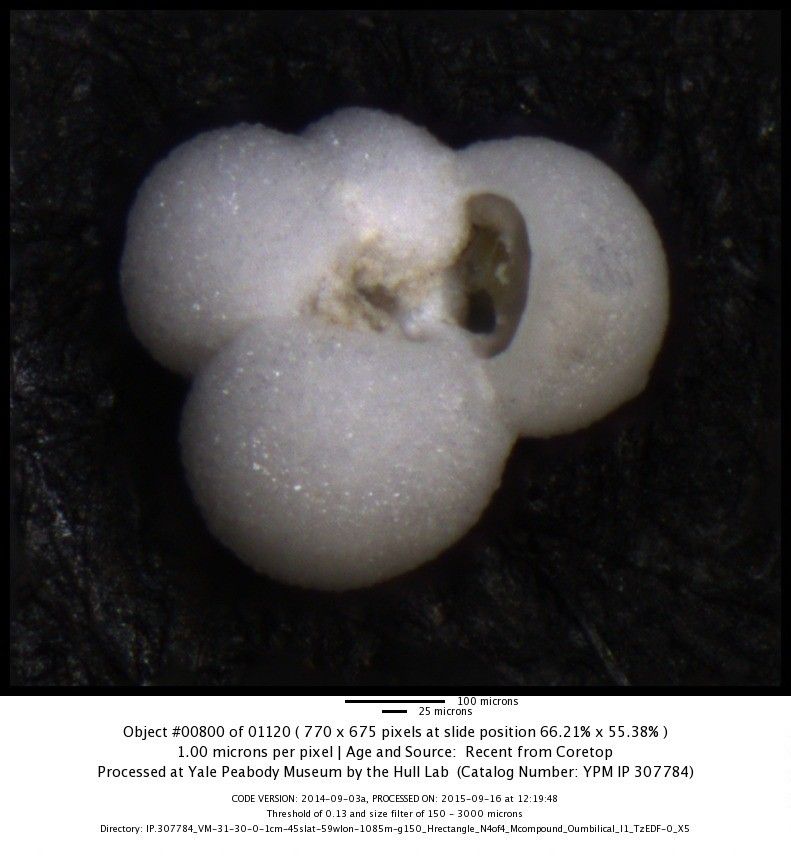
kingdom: Chromista
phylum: Foraminifera
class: Globothalamea
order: Rotaliida
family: Globigerinidae
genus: Globigerina
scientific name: Globigerina bulloides
